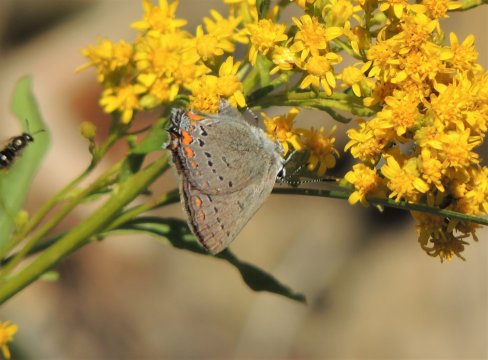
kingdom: Animalia
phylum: Arthropoda
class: Insecta
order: Lepidoptera
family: Lycaenidae
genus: Strymon
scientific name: Strymon acadica
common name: California Hairstreak
